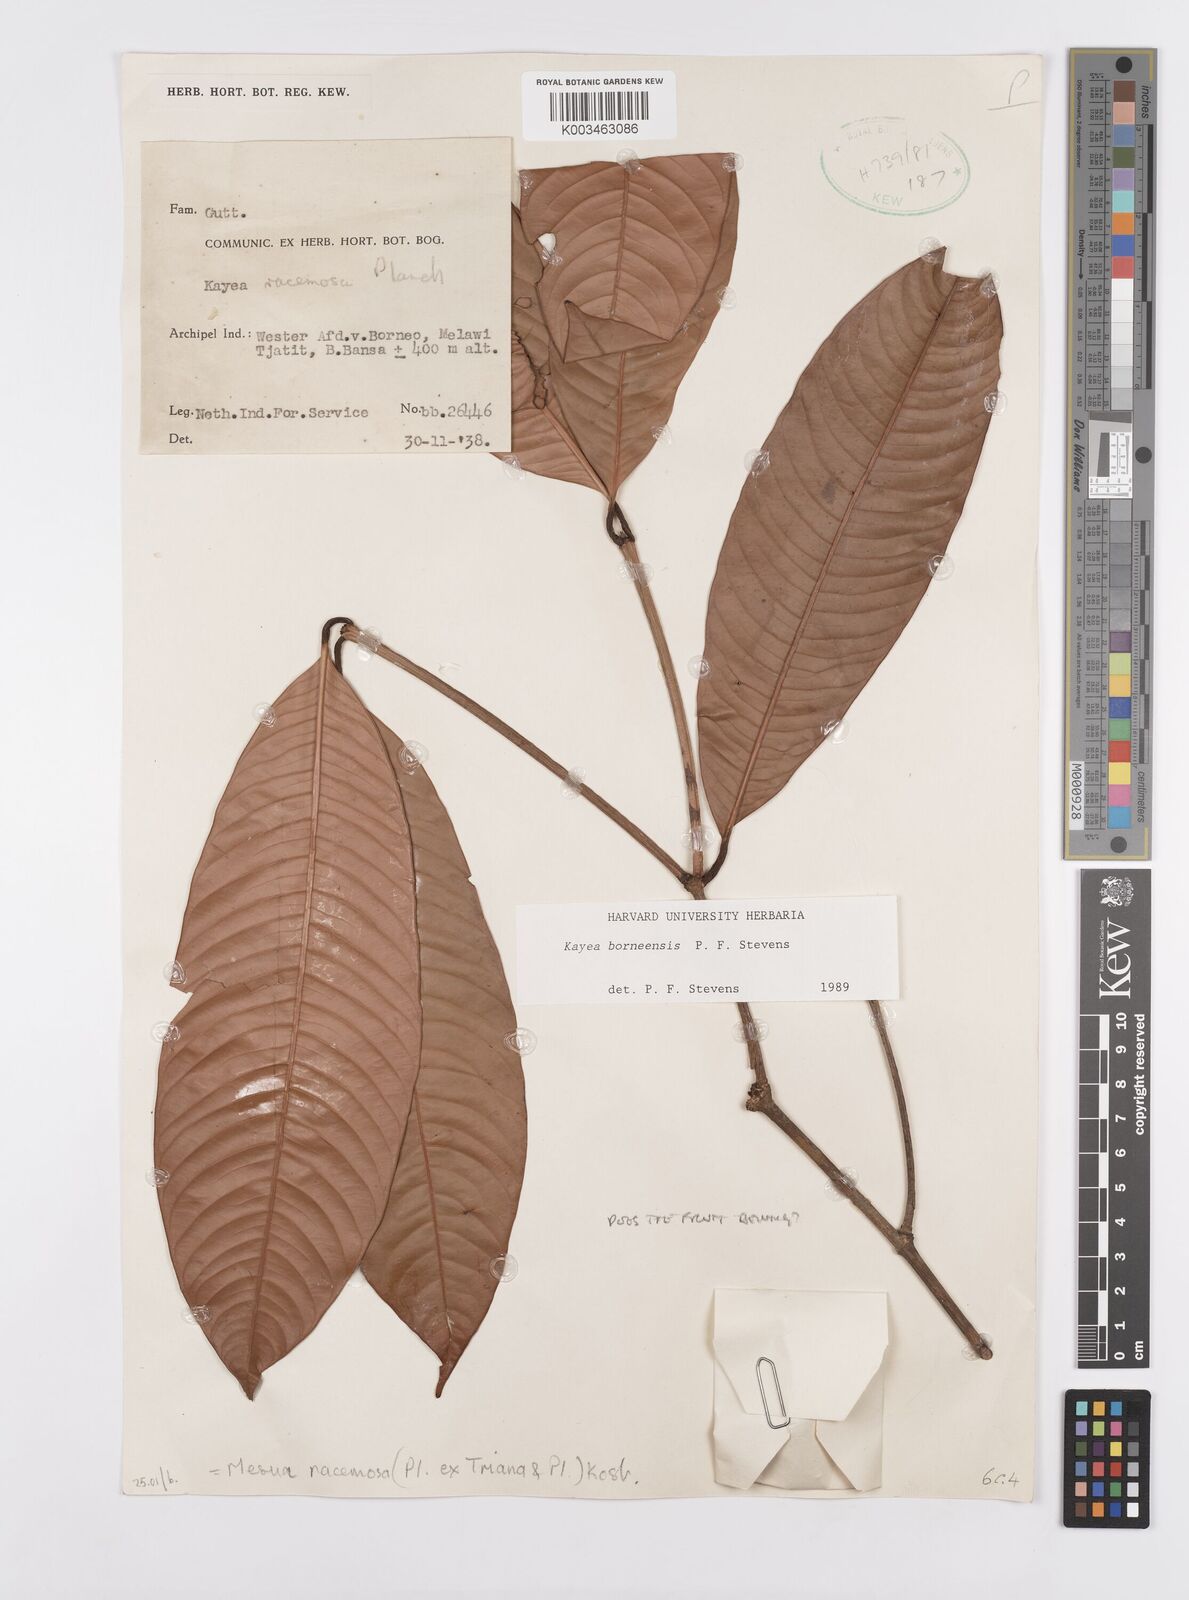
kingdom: Plantae
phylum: Tracheophyta
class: Magnoliopsida
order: Malpighiales
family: Calophyllaceae
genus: Kayea
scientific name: Kayea borneensis
